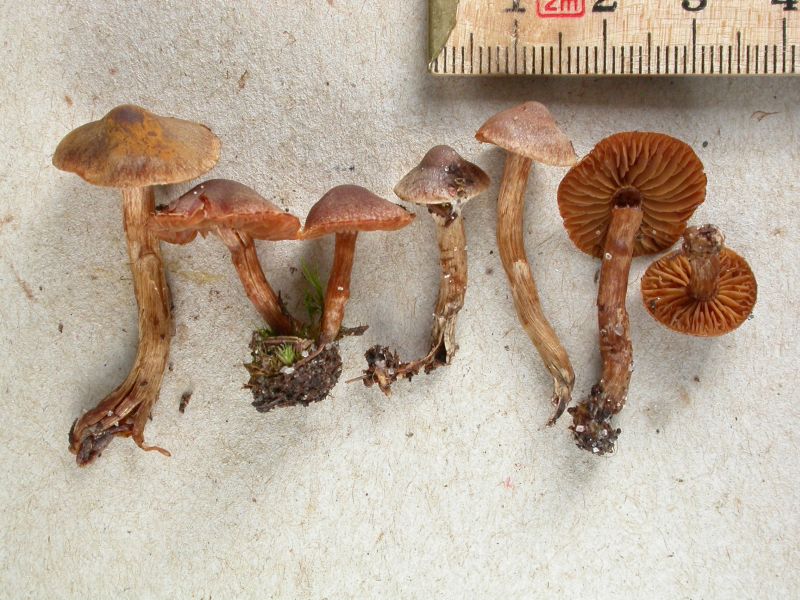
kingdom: Fungi
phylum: Basidiomycota
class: Agaricomycetes
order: Agaricales
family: Cortinariaceae
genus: Cortinarius
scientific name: Cortinarius fusisporus
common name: brunfnugget slørhat
